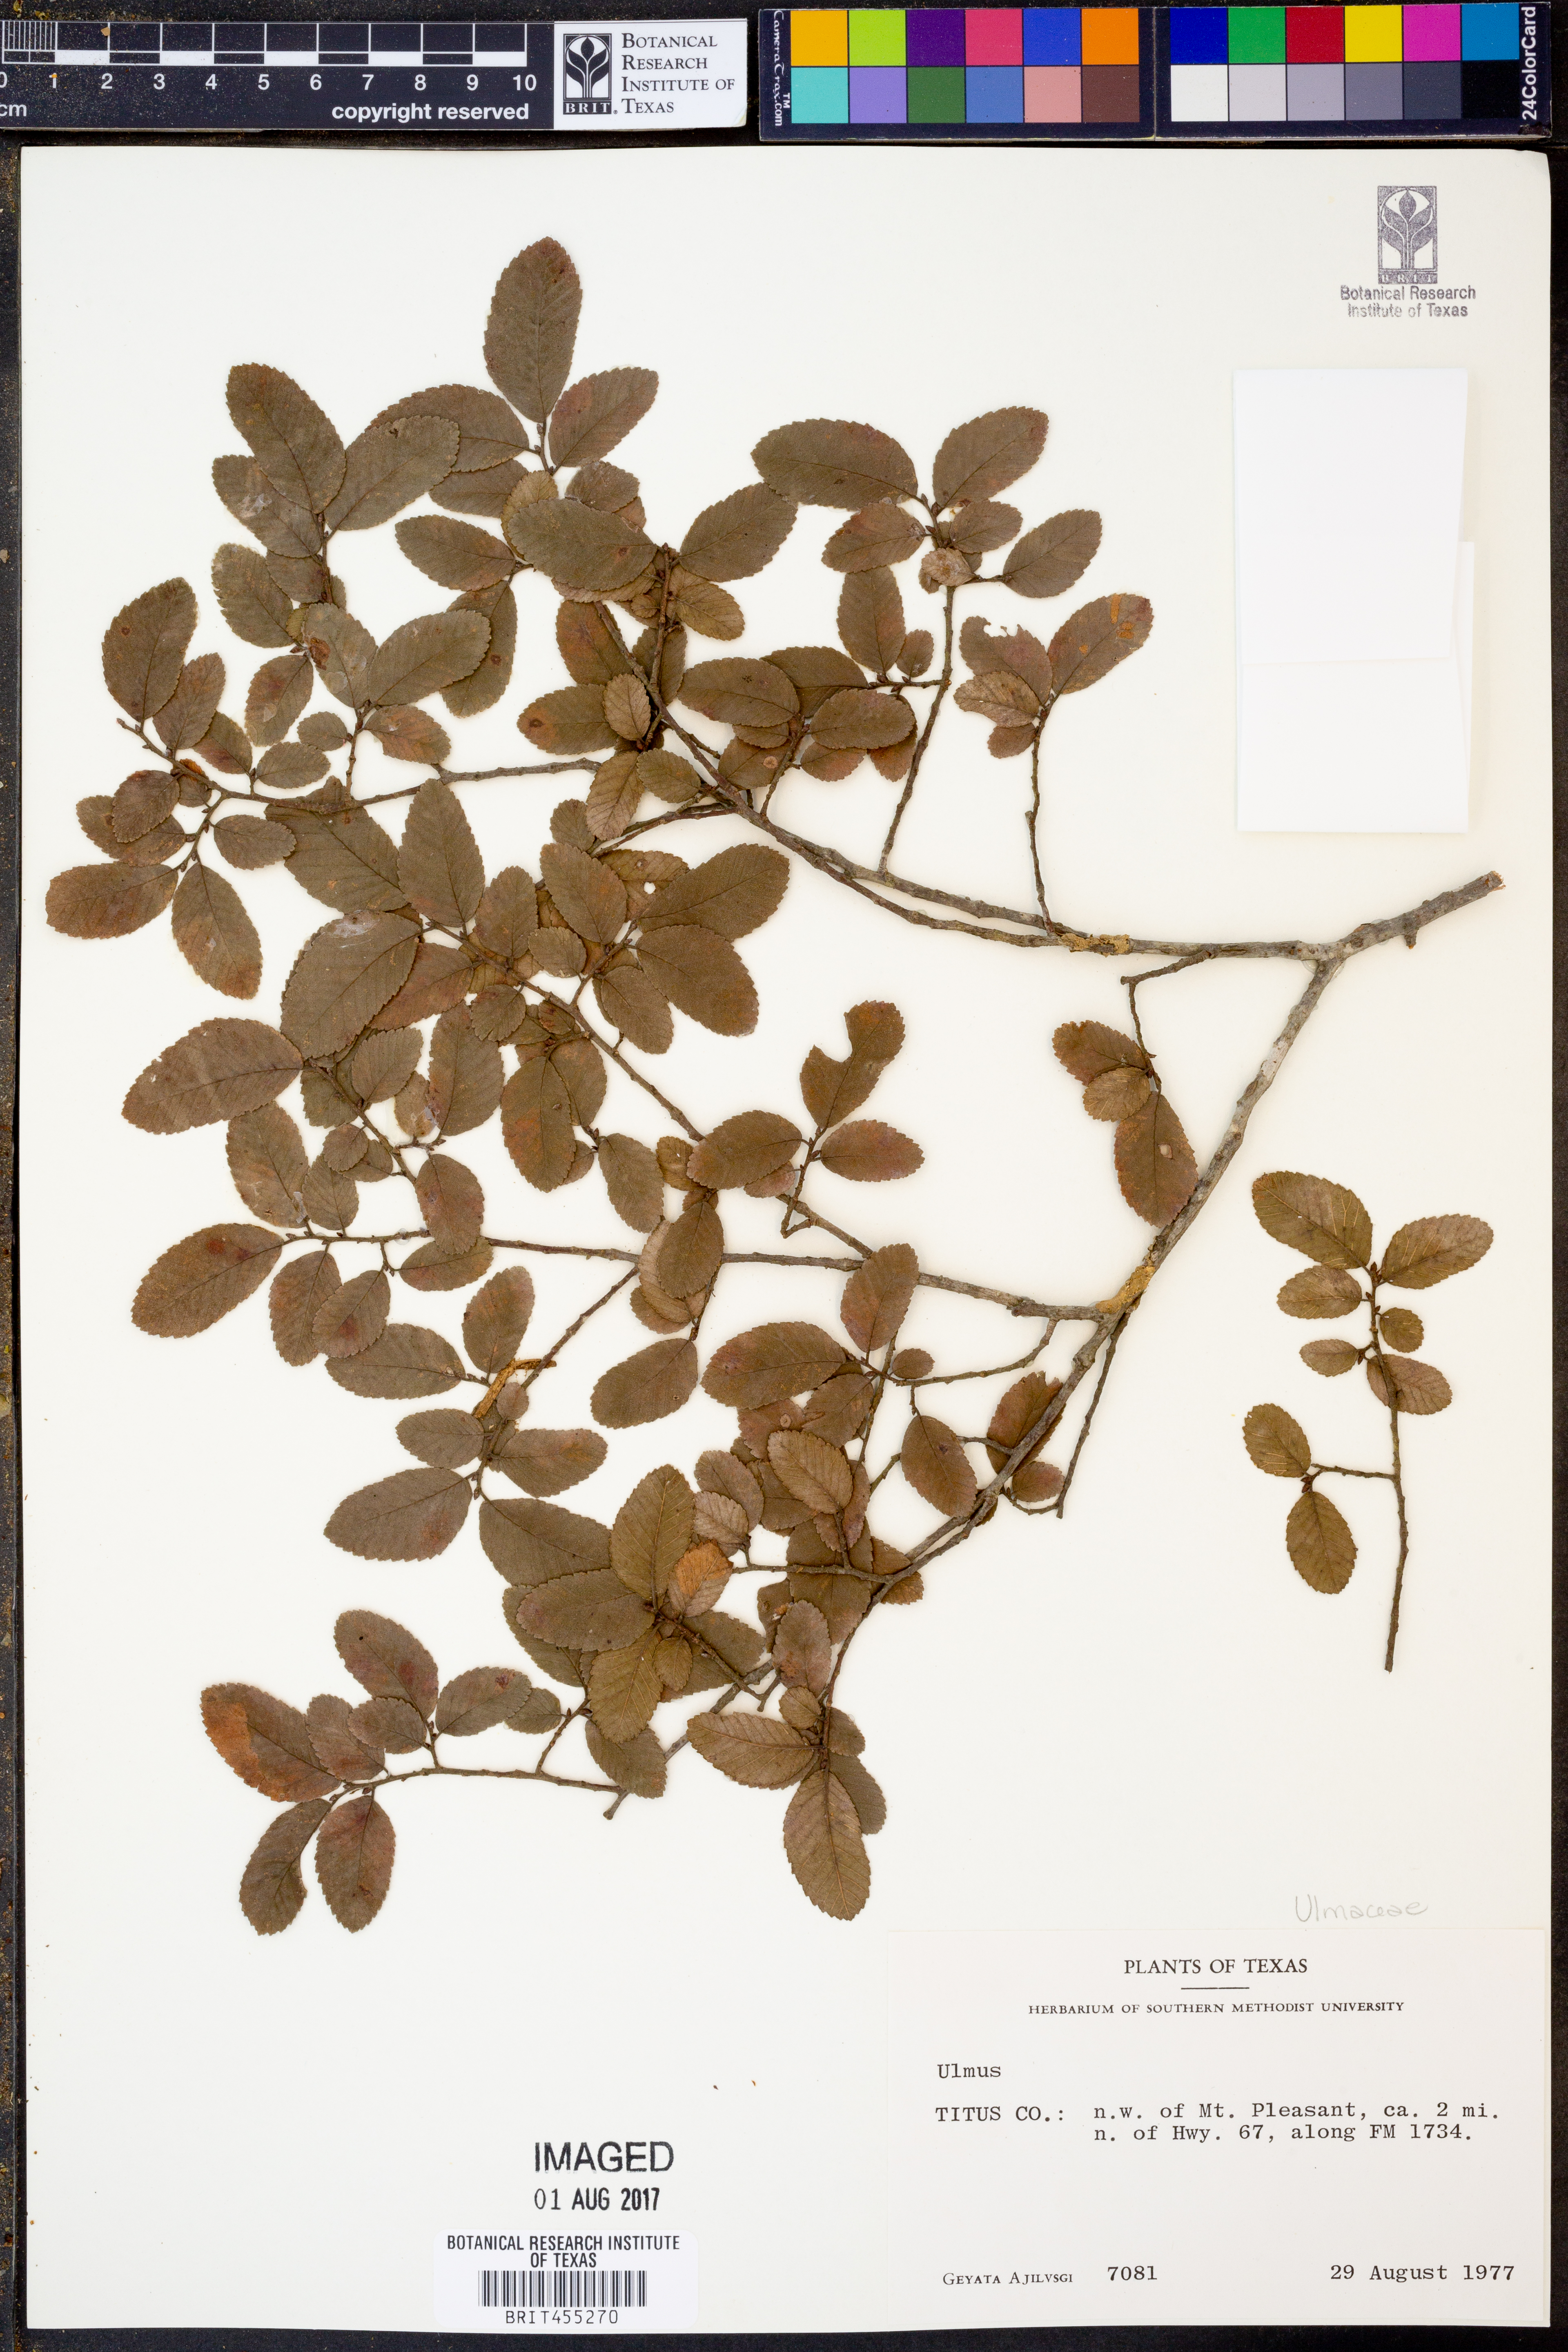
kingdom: Plantae
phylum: Tracheophyta
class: Magnoliopsida
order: Rosales
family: Ulmaceae
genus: Ulmus
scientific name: Ulmus
